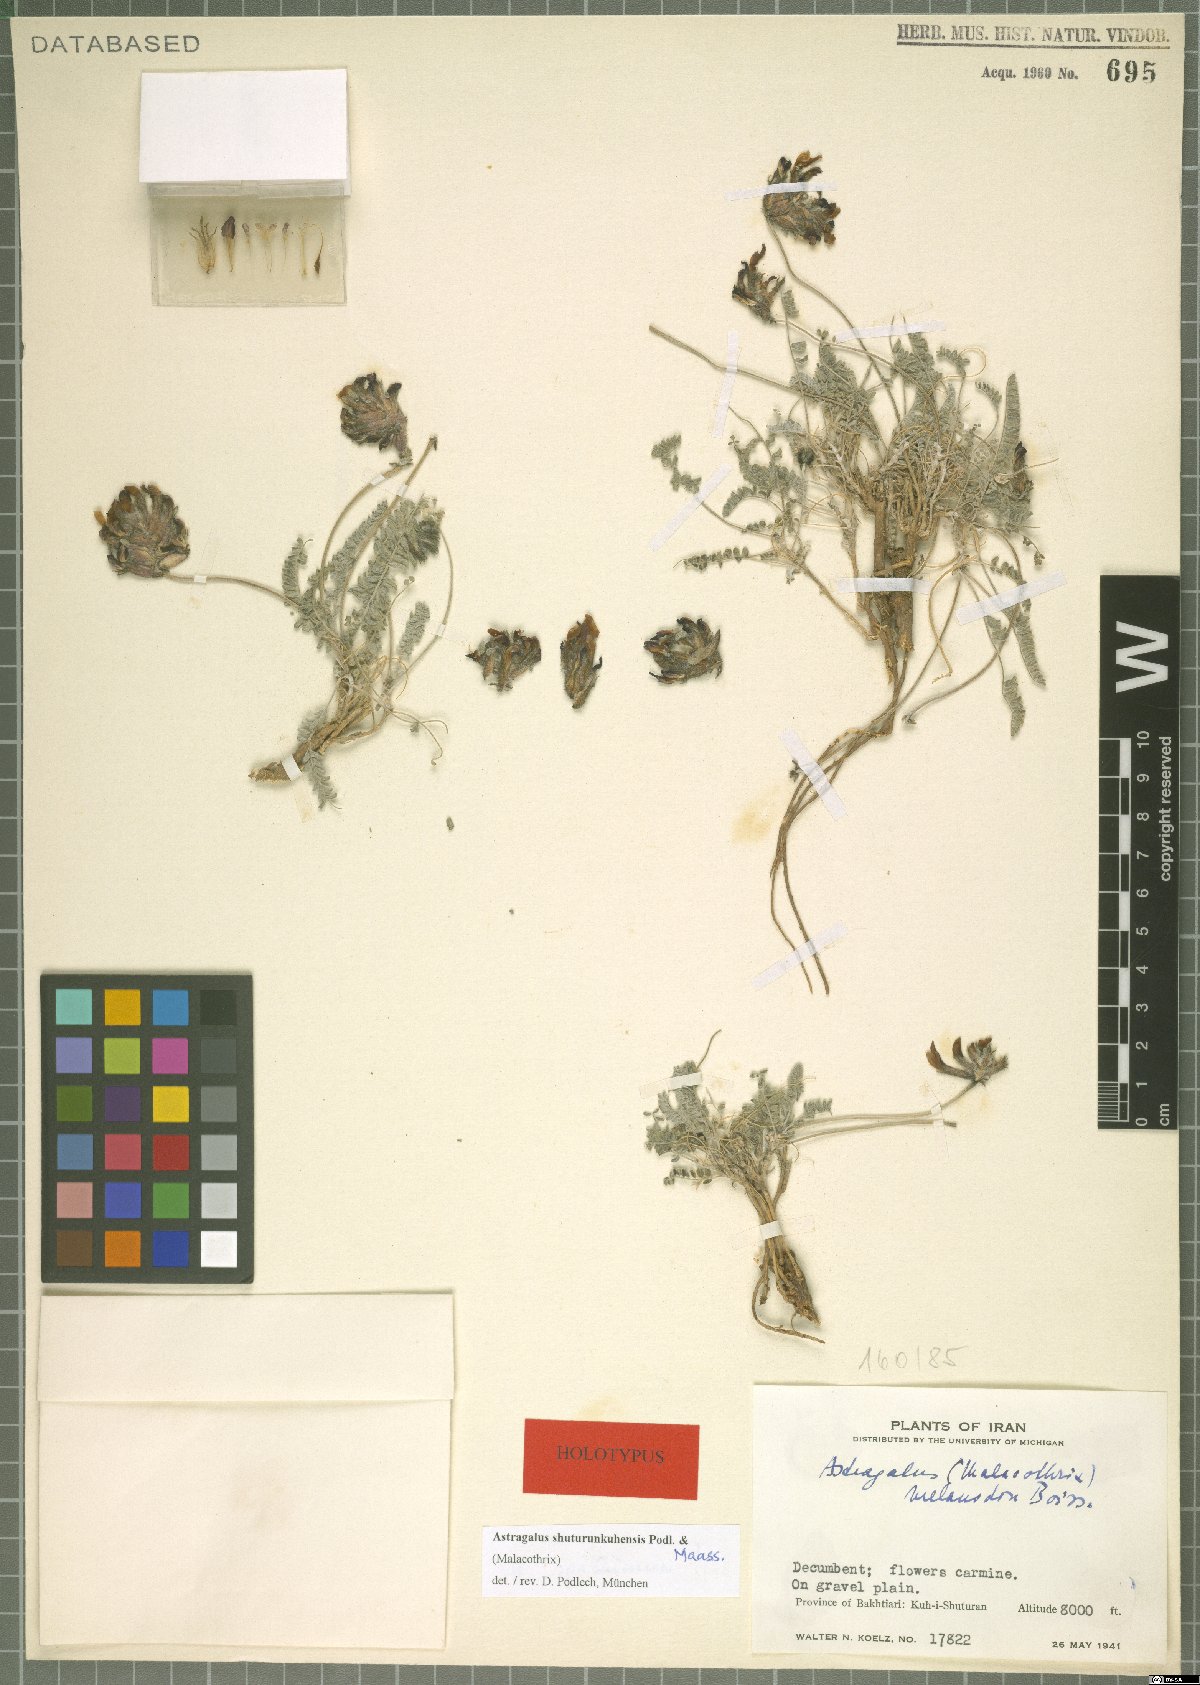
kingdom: Plantae
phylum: Tracheophyta
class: Magnoliopsida
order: Fabales
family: Fabaceae
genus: Astragalus
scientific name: Astragalus shuturunkuhensis
